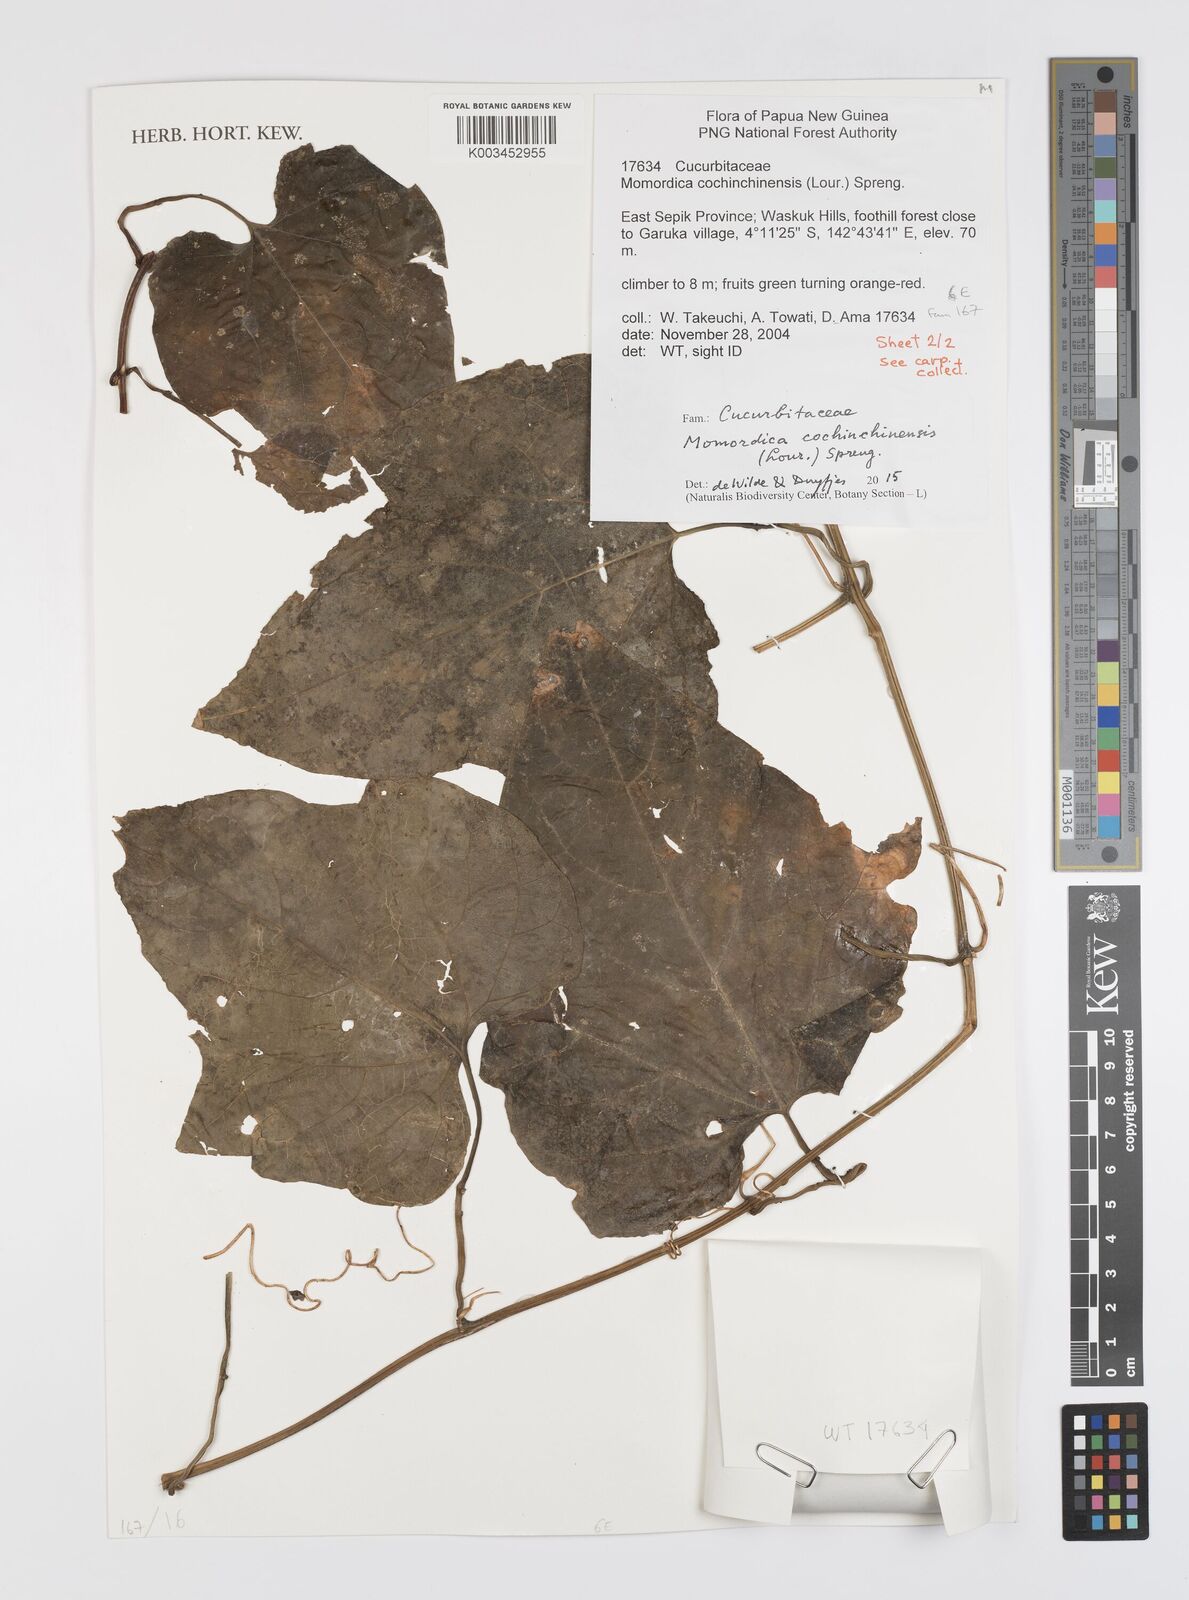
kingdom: Plantae
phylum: Tracheophyta
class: Magnoliopsida
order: Cucurbitales
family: Cucurbitaceae
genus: Momordica
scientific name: Momordica cochinchinensis
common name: Chinese bitter-cucumber
